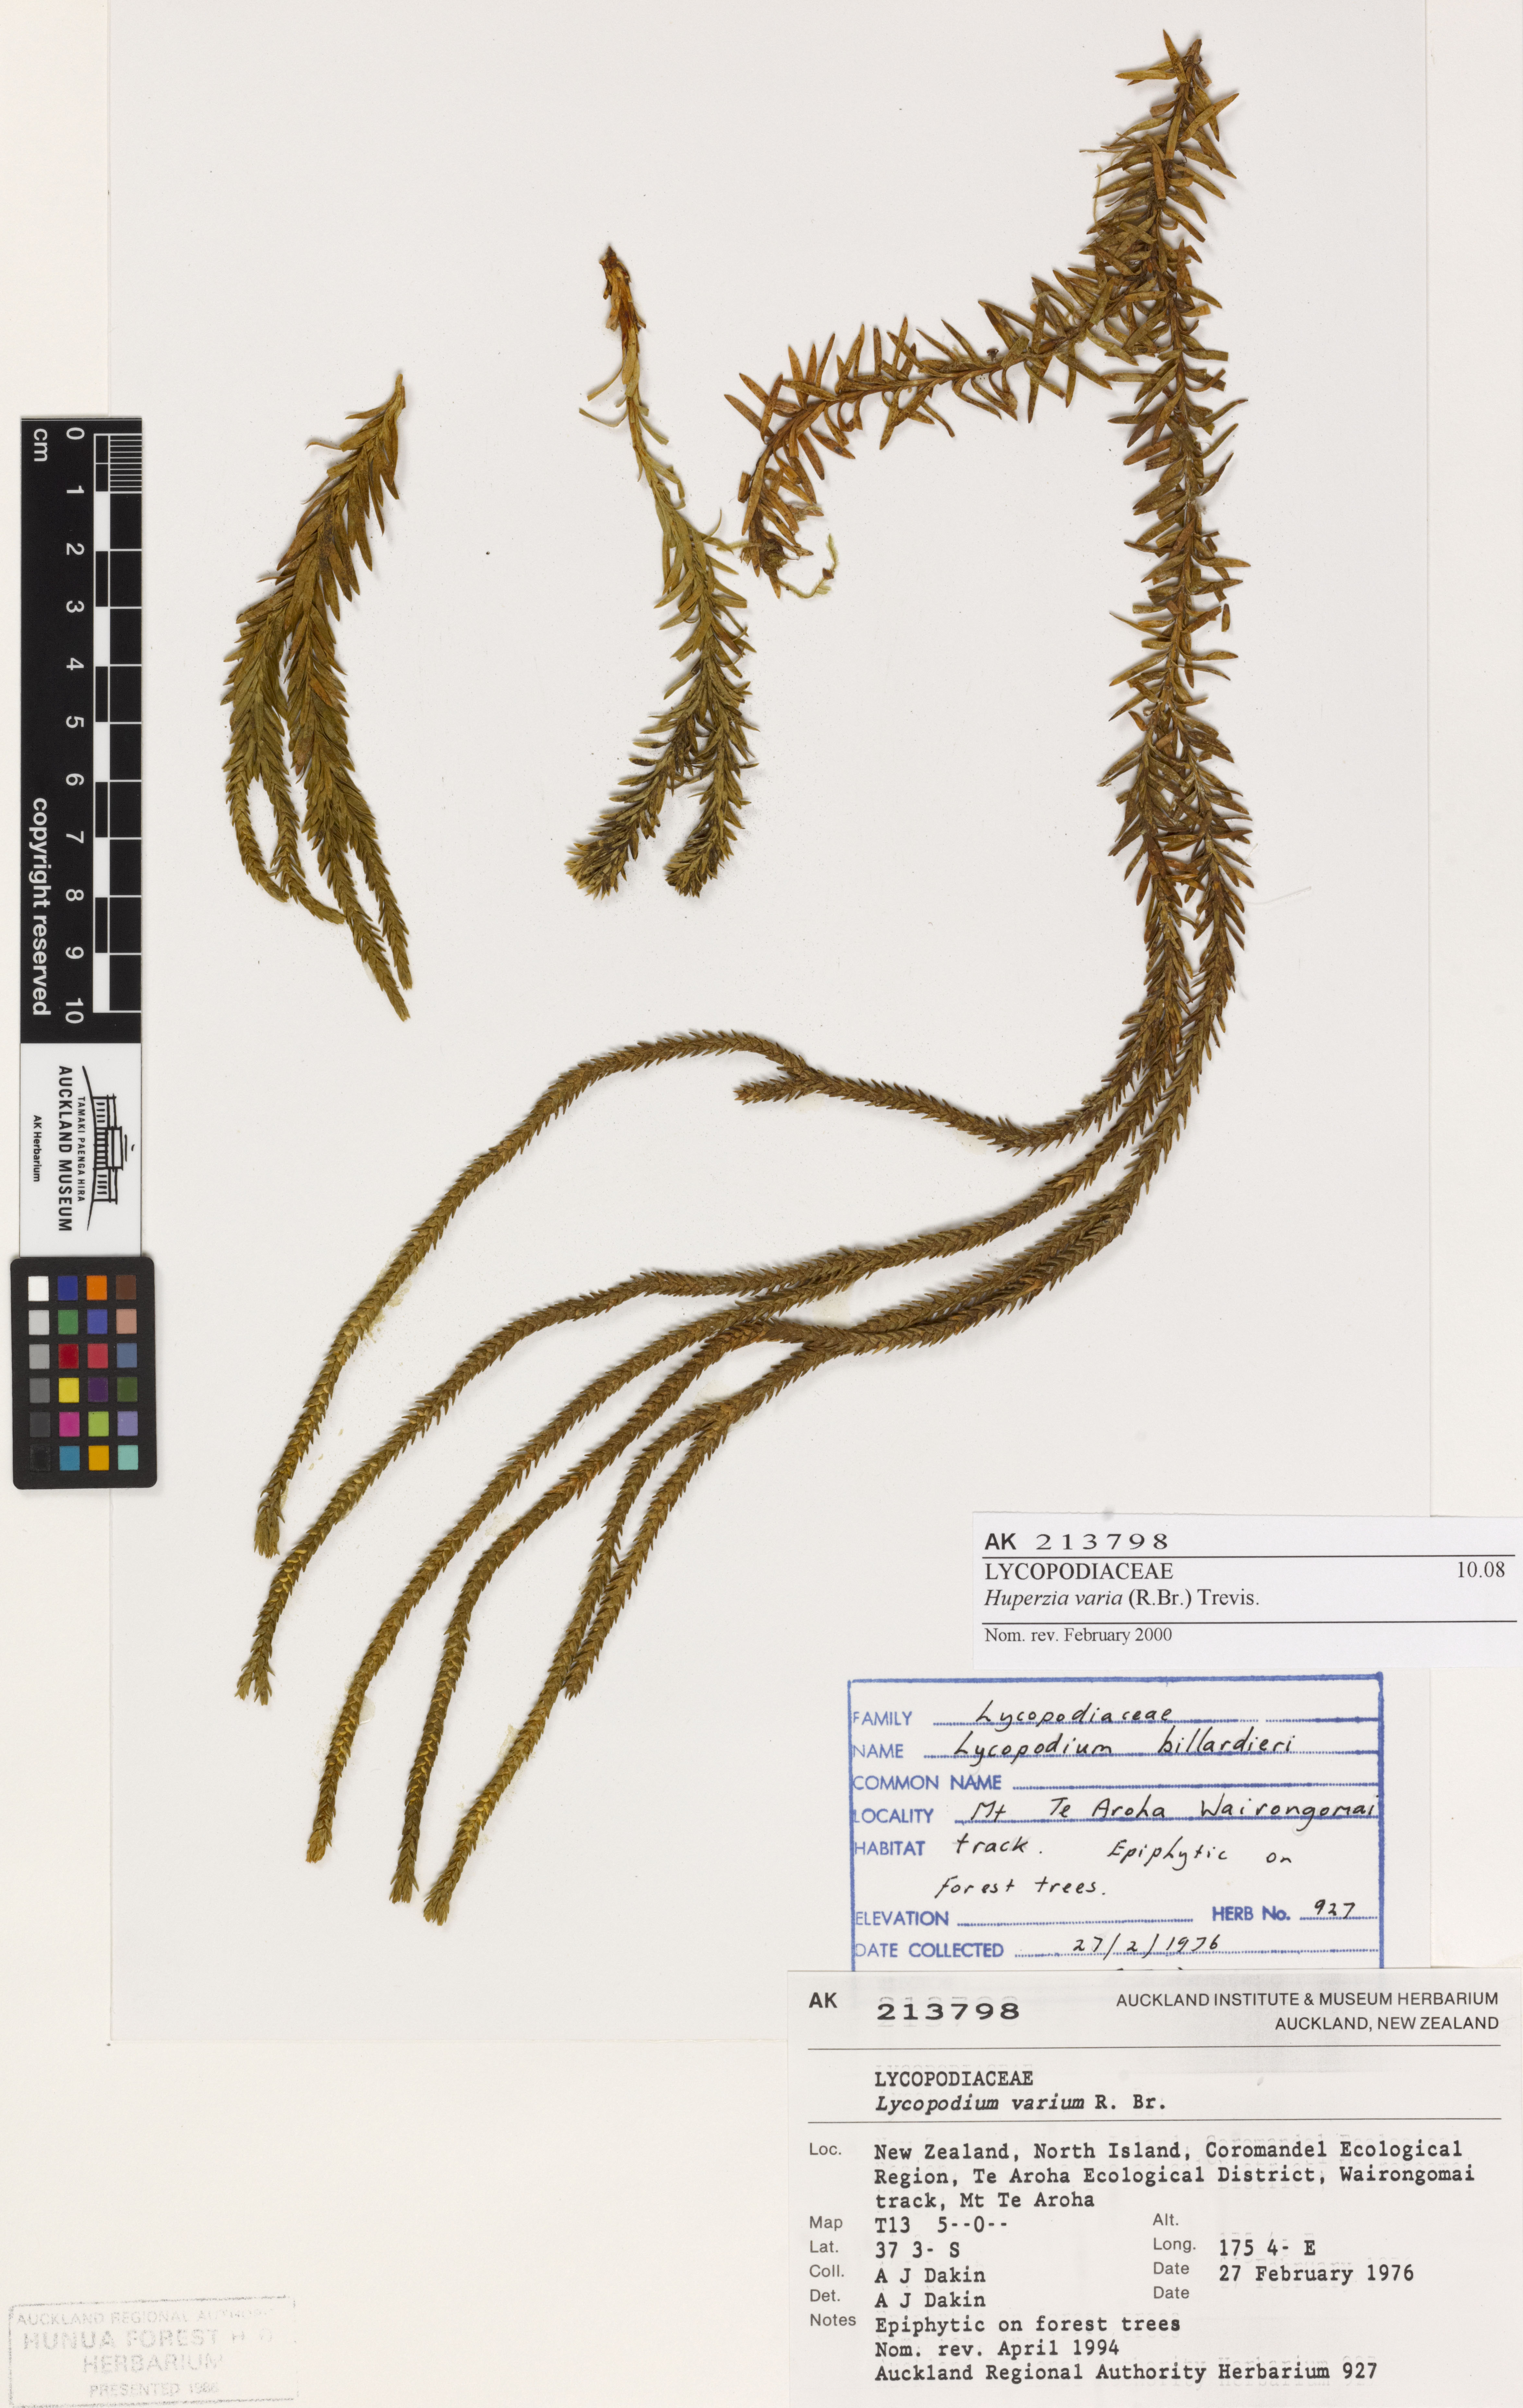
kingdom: Plantae
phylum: Tracheophyta
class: Lycopodiopsida
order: Lycopodiales
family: Lycopodiaceae
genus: Phlegmariurus
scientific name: Phlegmariurus varius
